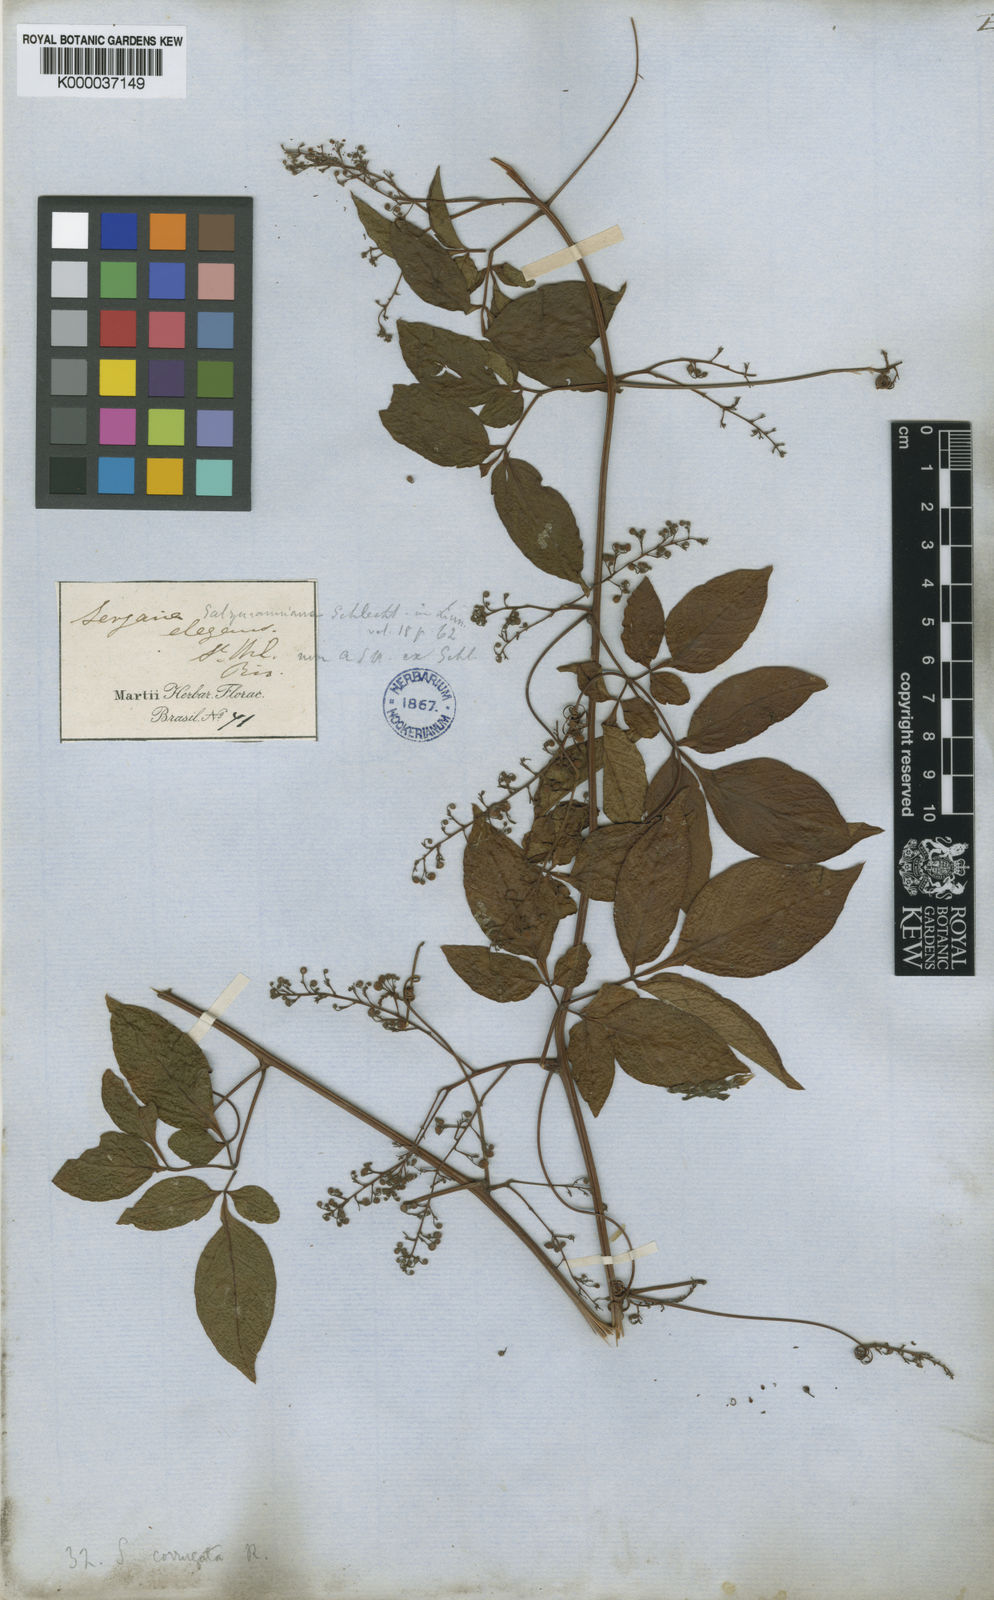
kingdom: Plantae
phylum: Tracheophyta
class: Magnoliopsida
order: Sapindales
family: Sapindaceae
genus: Serjania
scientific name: Serjania corrugata
